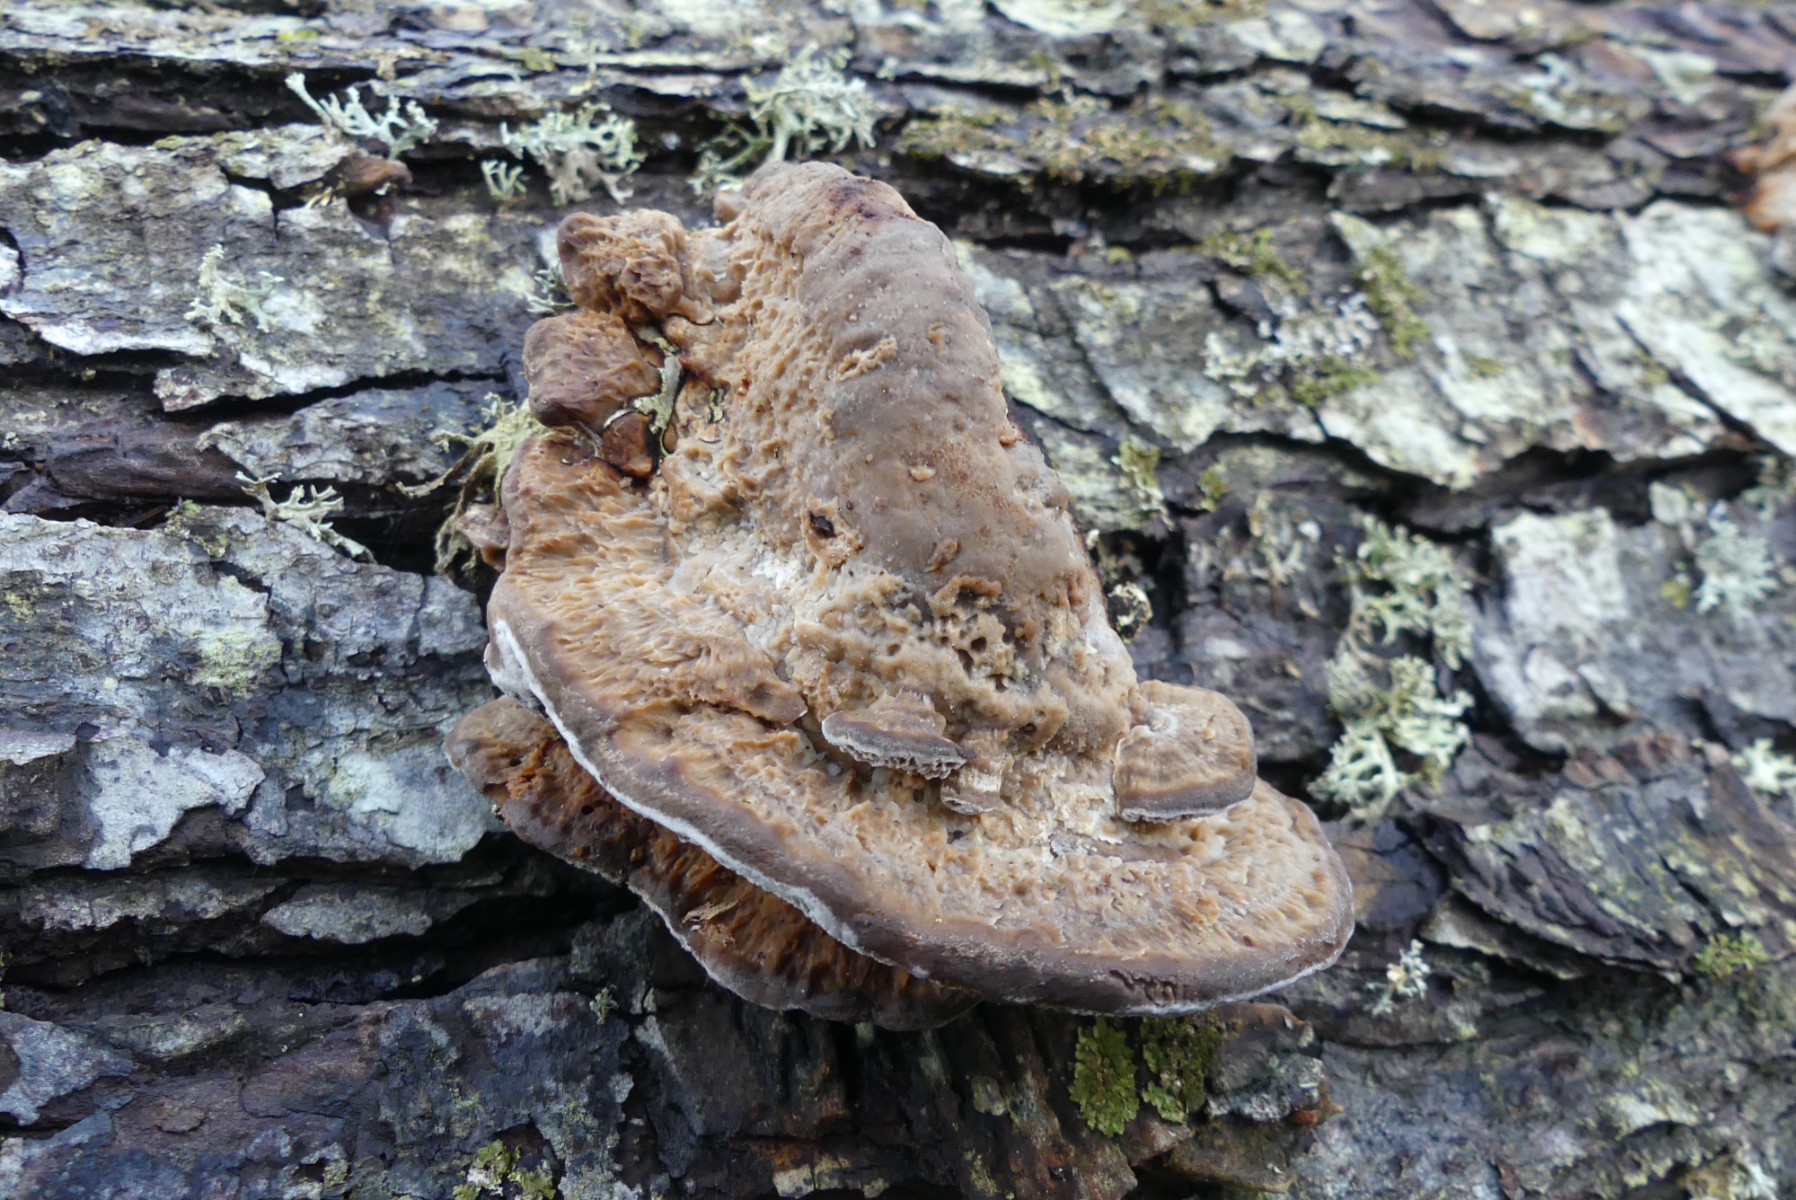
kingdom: Fungi
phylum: Basidiomycota
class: Agaricomycetes
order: Polyporales
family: Polyporaceae
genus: Daedaleopsis
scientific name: Daedaleopsis confragosa
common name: rødmende læderporesvamp
